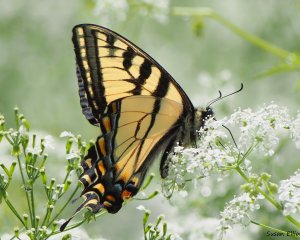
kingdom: Animalia
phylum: Arthropoda
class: Insecta
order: Lepidoptera
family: Papilionidae
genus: Pterourus
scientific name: Pterourus canadensis
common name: Canadian Tiger Swallowtail
